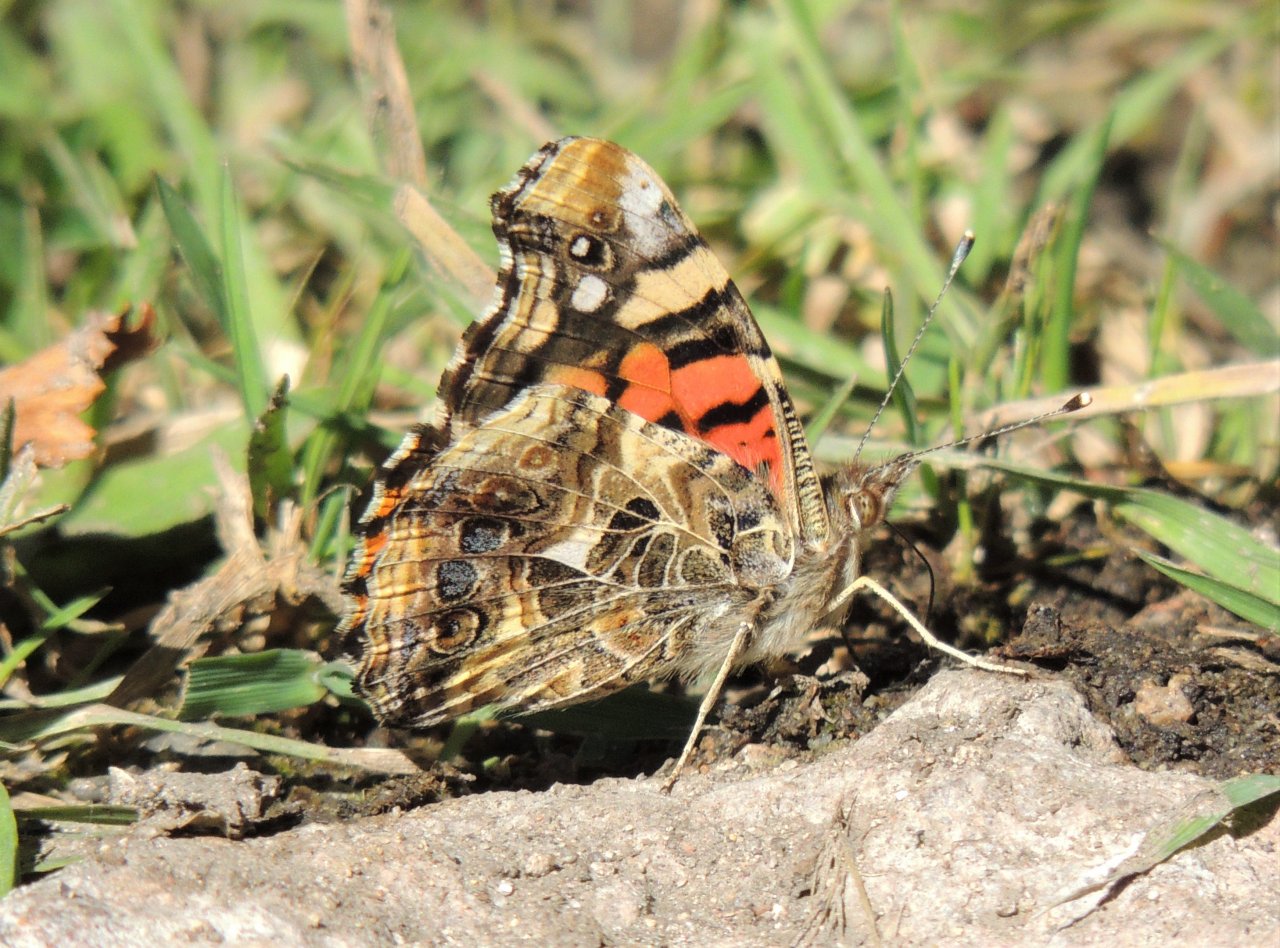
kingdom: Animalia
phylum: Arthropoda
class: Insecta
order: Lepidoptera
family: Nymphalidae
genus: Vanessa
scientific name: Vanessa annabella
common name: West Coast Lady
